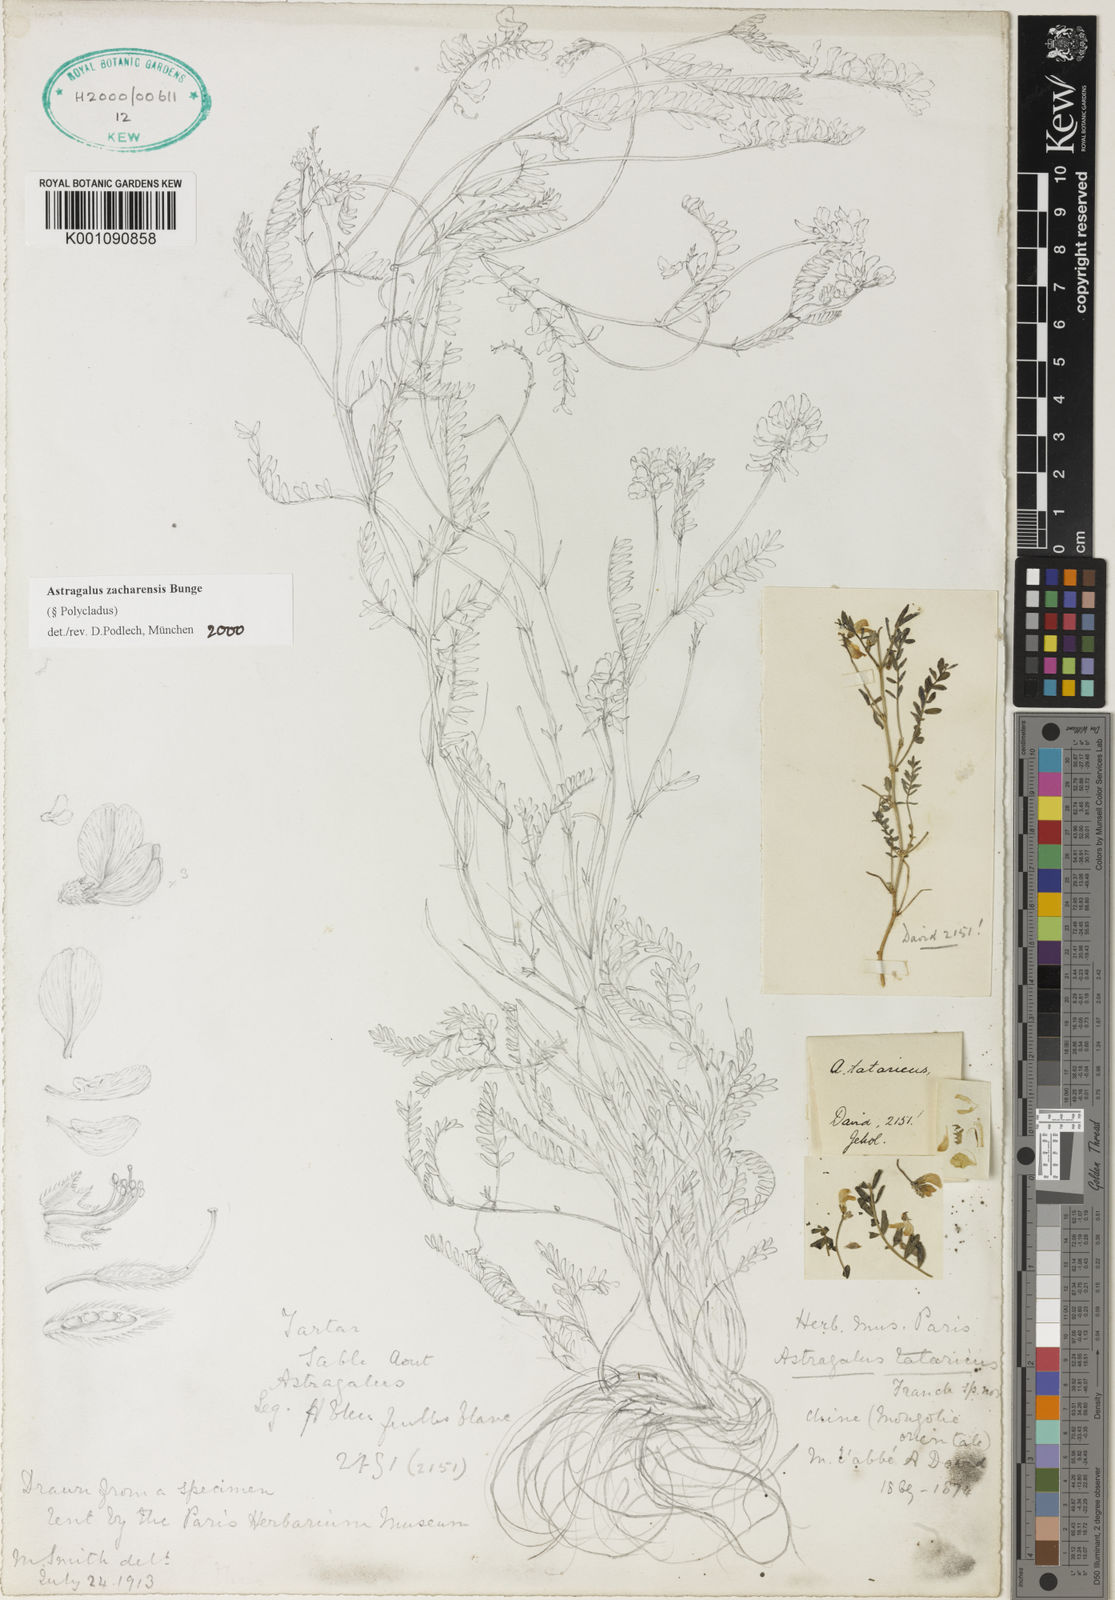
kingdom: Plantae
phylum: Tracheophyta
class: Magnoliopsida
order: Fabales
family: Fabaceae
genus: Astragalus
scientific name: Astragalus
